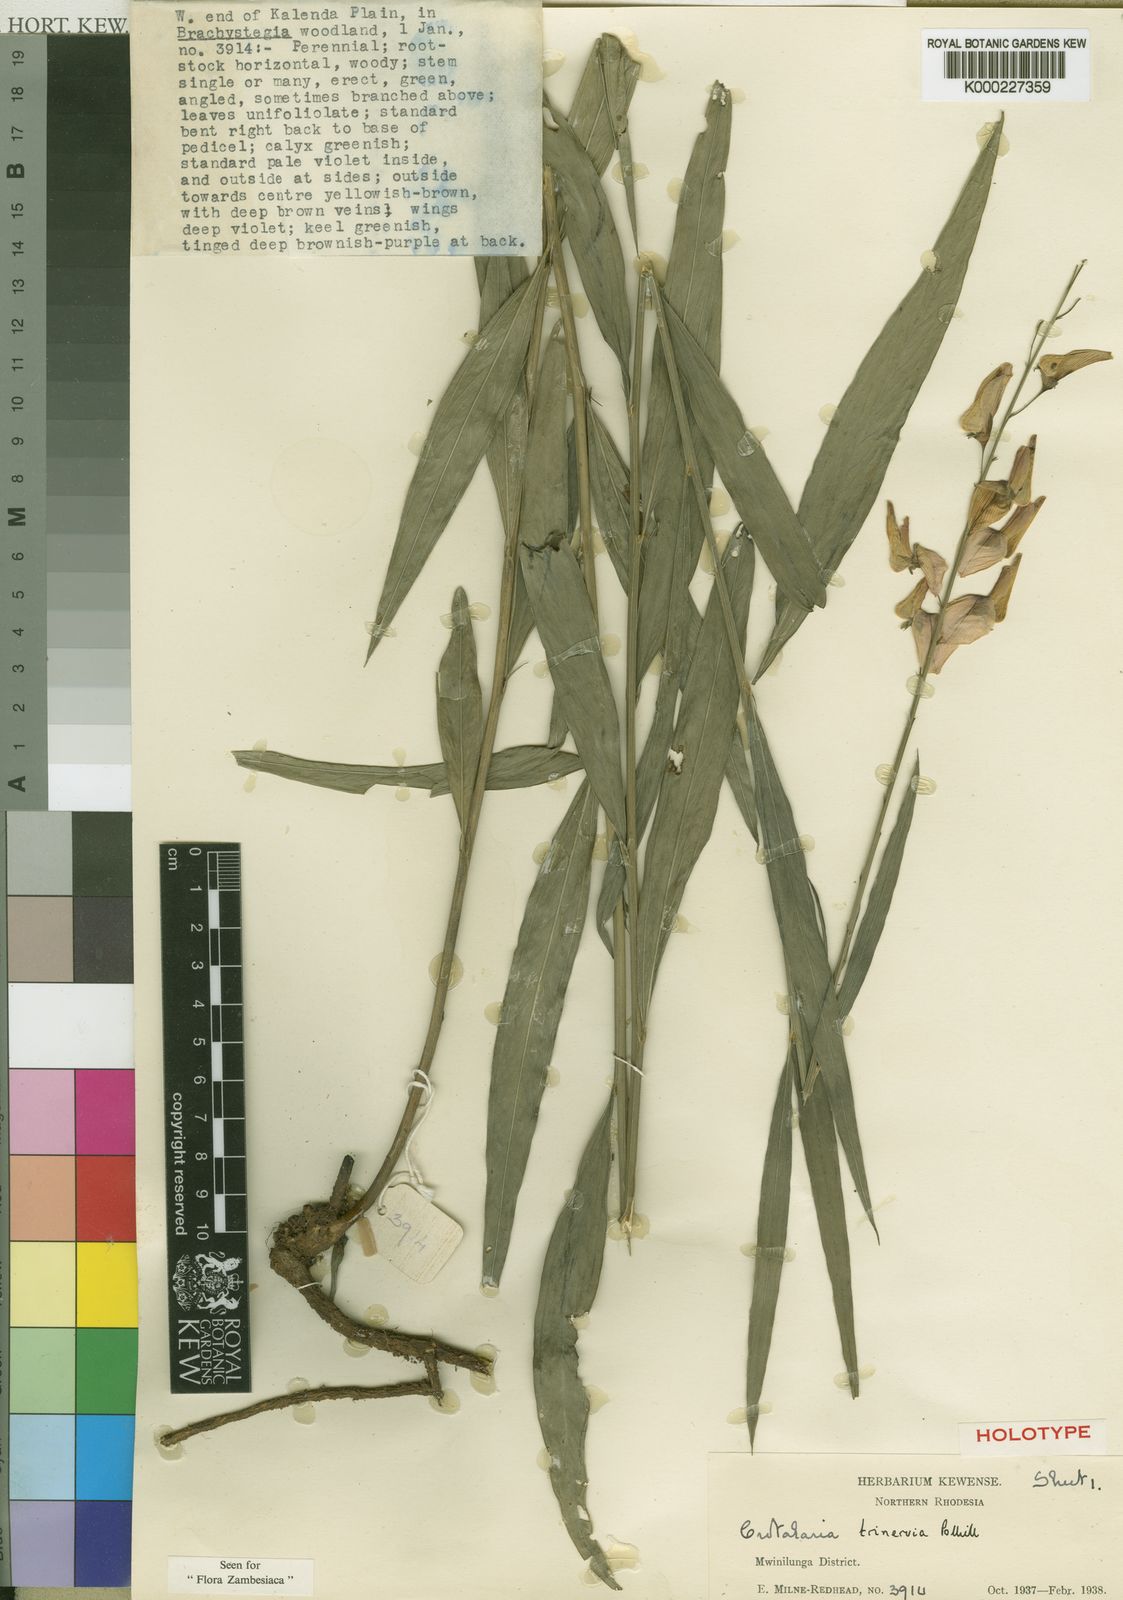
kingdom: Plantae
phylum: Tracheophyta
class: Magnoliopsida
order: Fabales
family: Fabaceae
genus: Crotalaria
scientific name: Crotalaria trinervia
